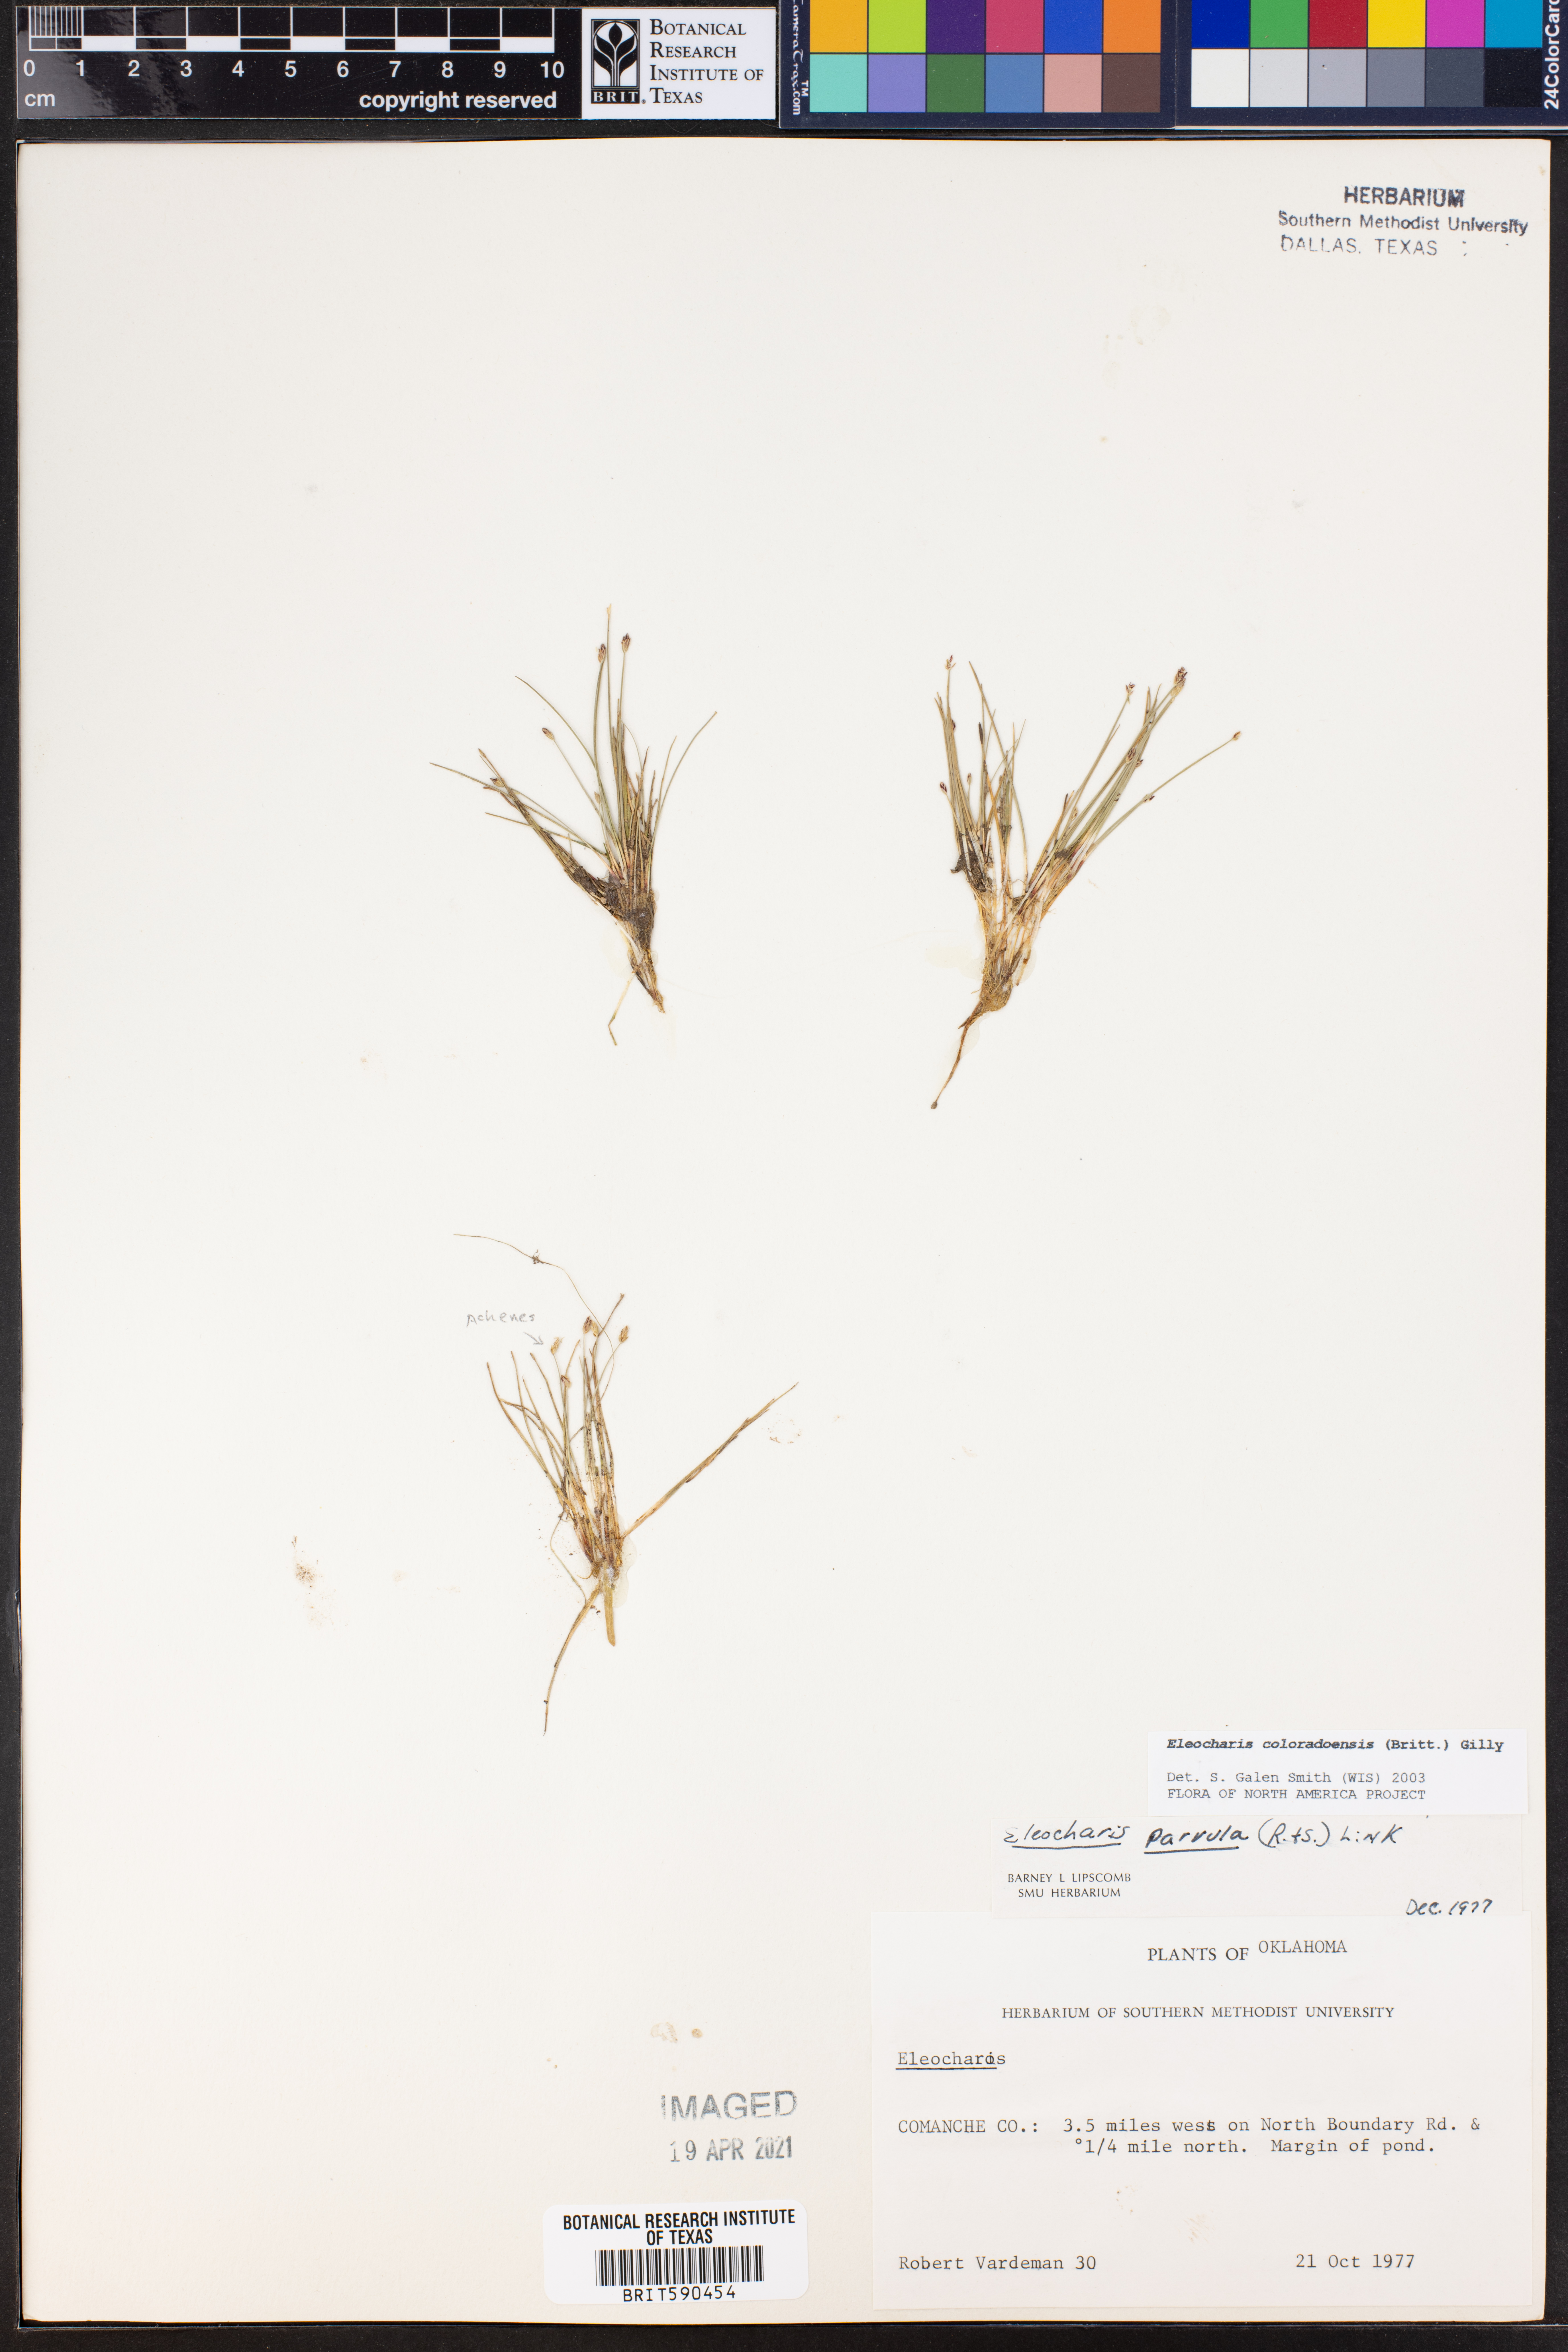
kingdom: Plantae
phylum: Tracheophyta
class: Liliopsida
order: Poales
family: Cyperaceae
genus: Eleocharis
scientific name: Eleocharis coloradoensis
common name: Colorado spikerush
